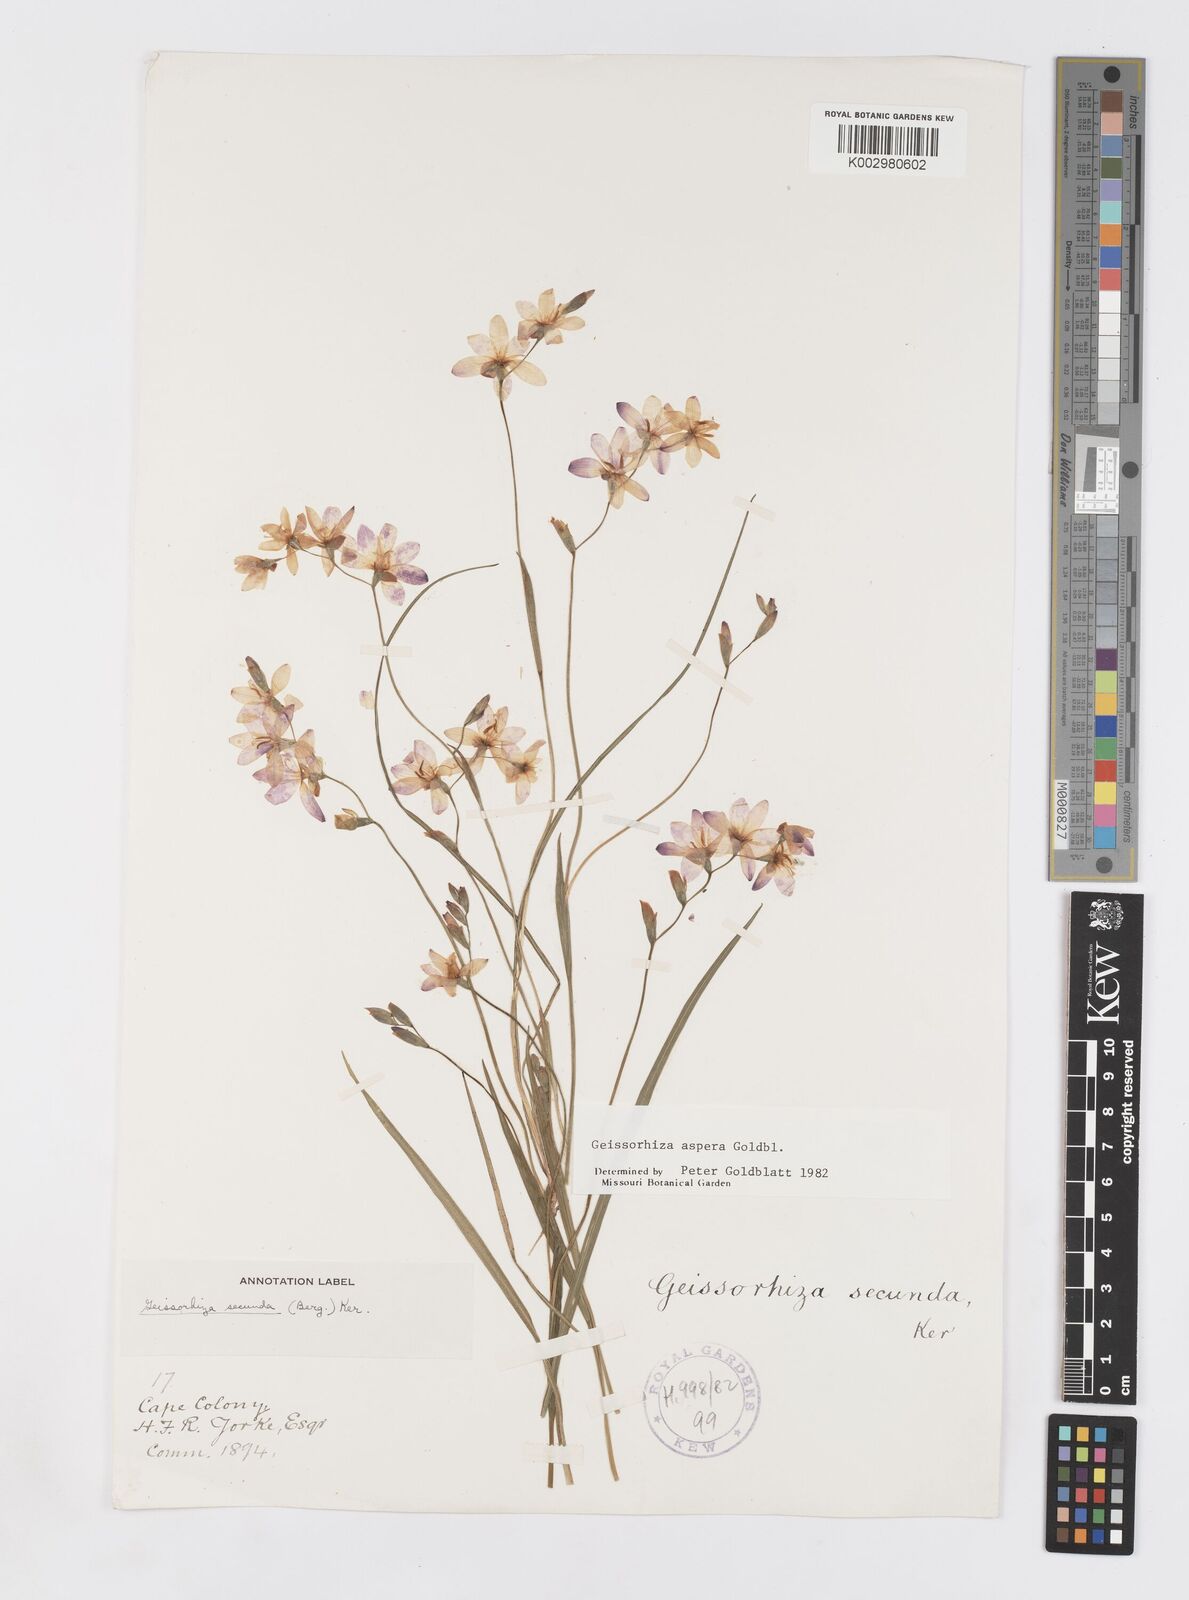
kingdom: Plantae
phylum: Tracheophyta
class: Liliopsida
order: Asparagales
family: Iridaceae
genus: Geissorhiza
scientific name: Geissorhiza aspera
